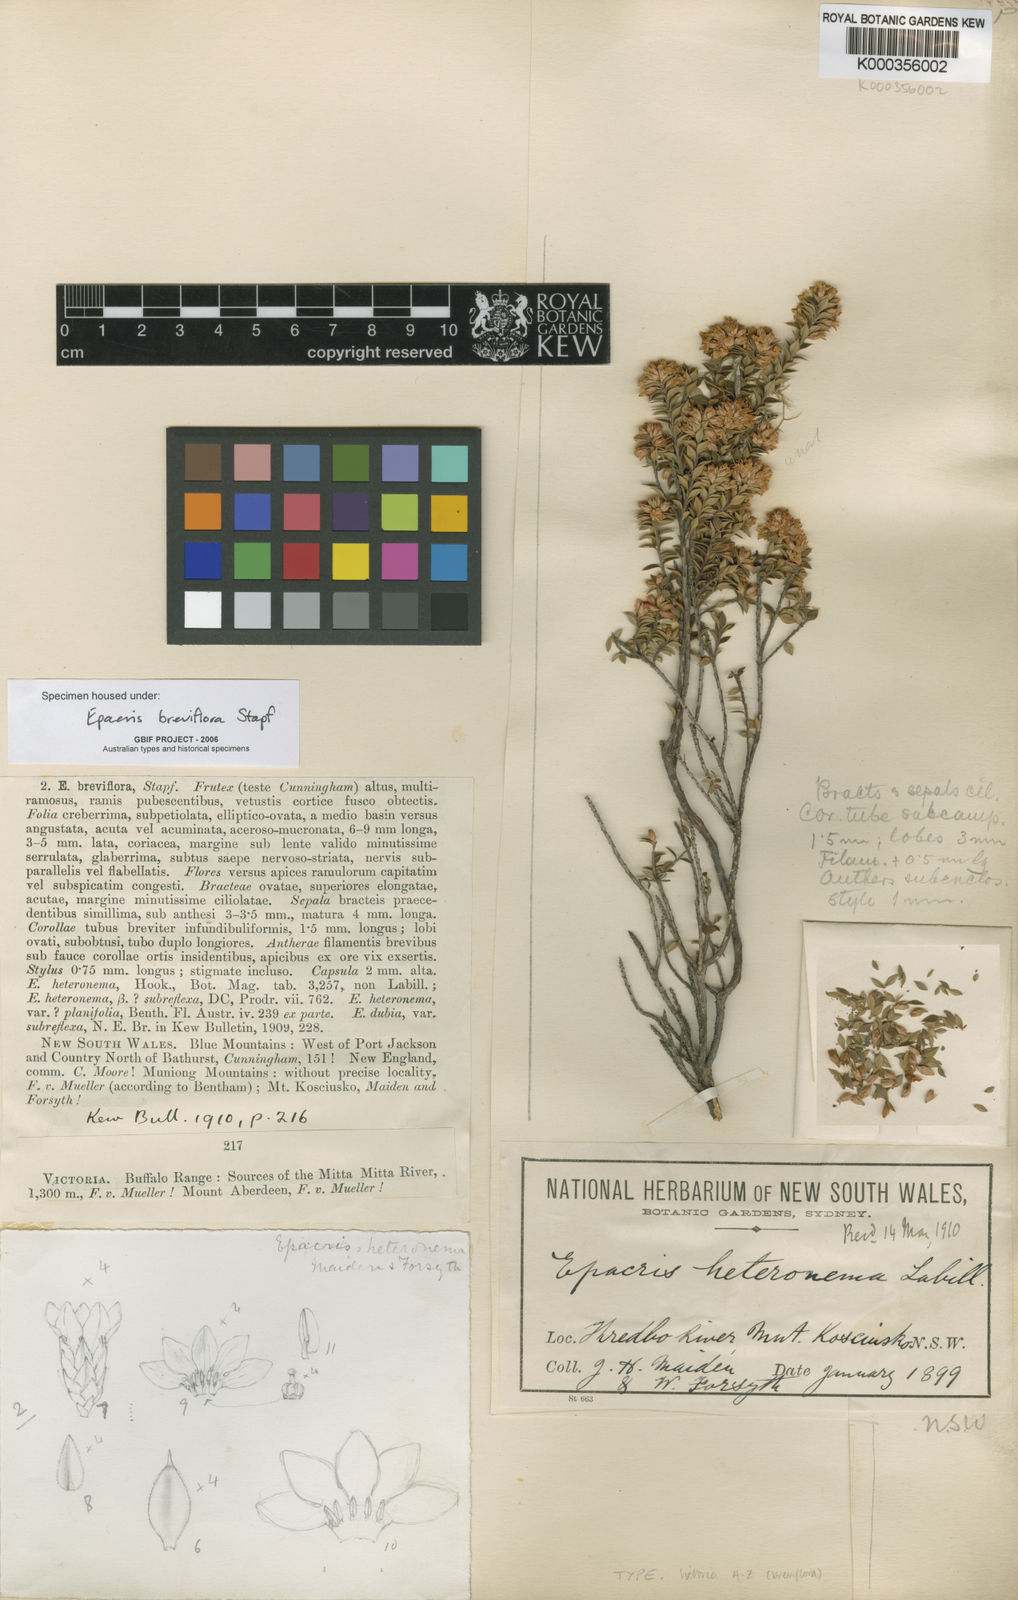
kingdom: Plantae
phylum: Tracheophyta
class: Magnoliopsida
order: Ericales
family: Ericaceae
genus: Epacris
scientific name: Epacris breviflora
